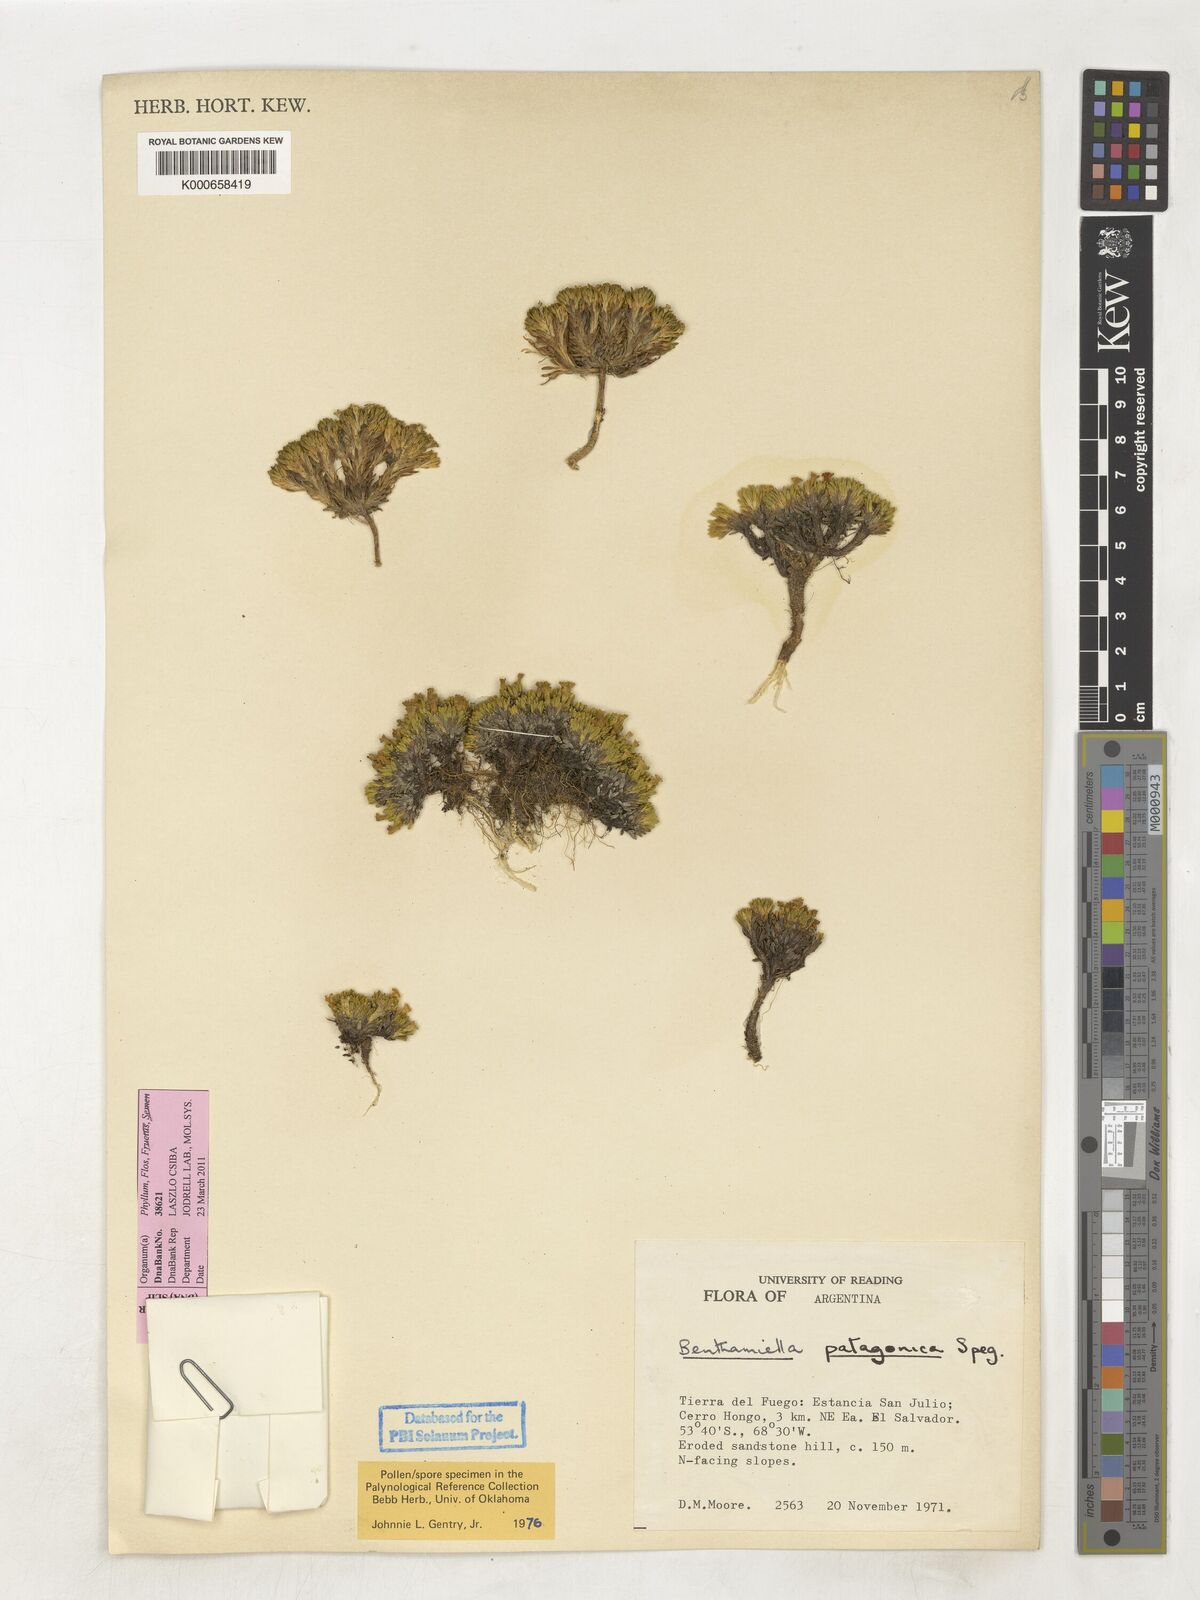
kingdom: Plantae
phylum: Tracheophyta
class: Magnoliopsida
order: Solanales
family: Solanaceae
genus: Benthamiella
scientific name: Benthamiella patagonica
